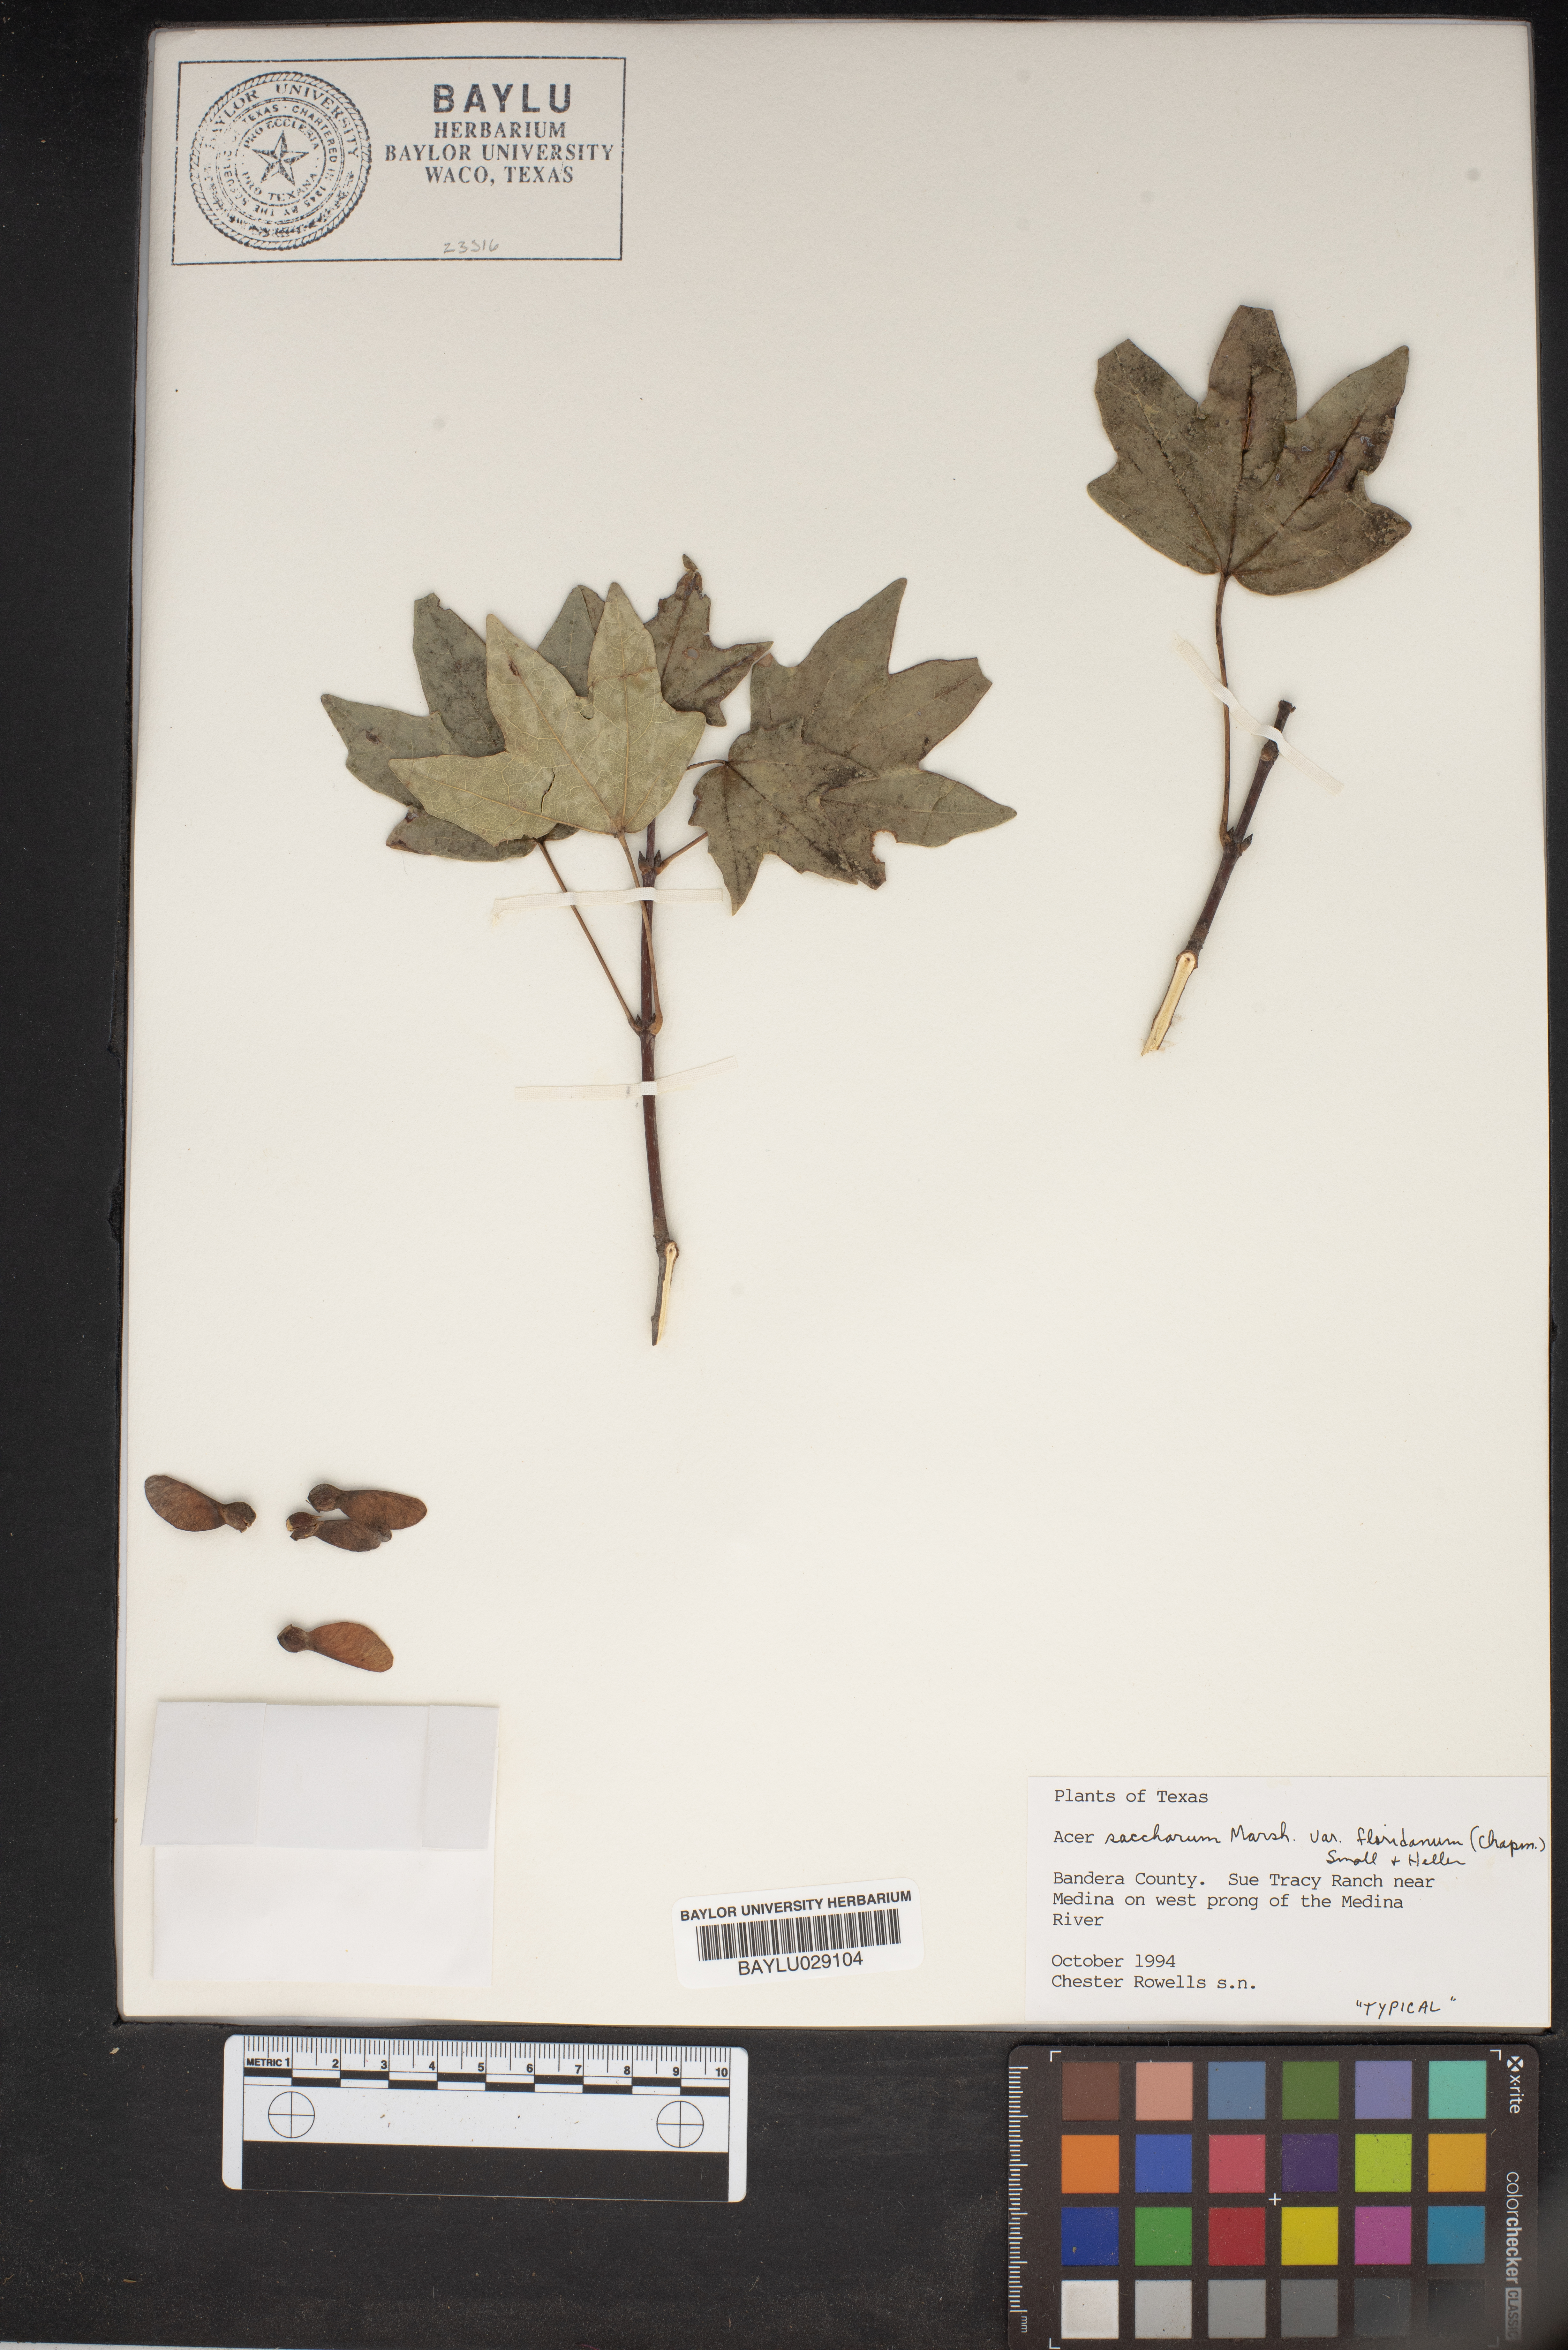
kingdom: Plantae
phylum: Tracheophyta
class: Magnoliopsida
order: Sapindales
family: Sapindaceae
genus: Acer
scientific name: Acer saccharinum
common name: Silver maple
